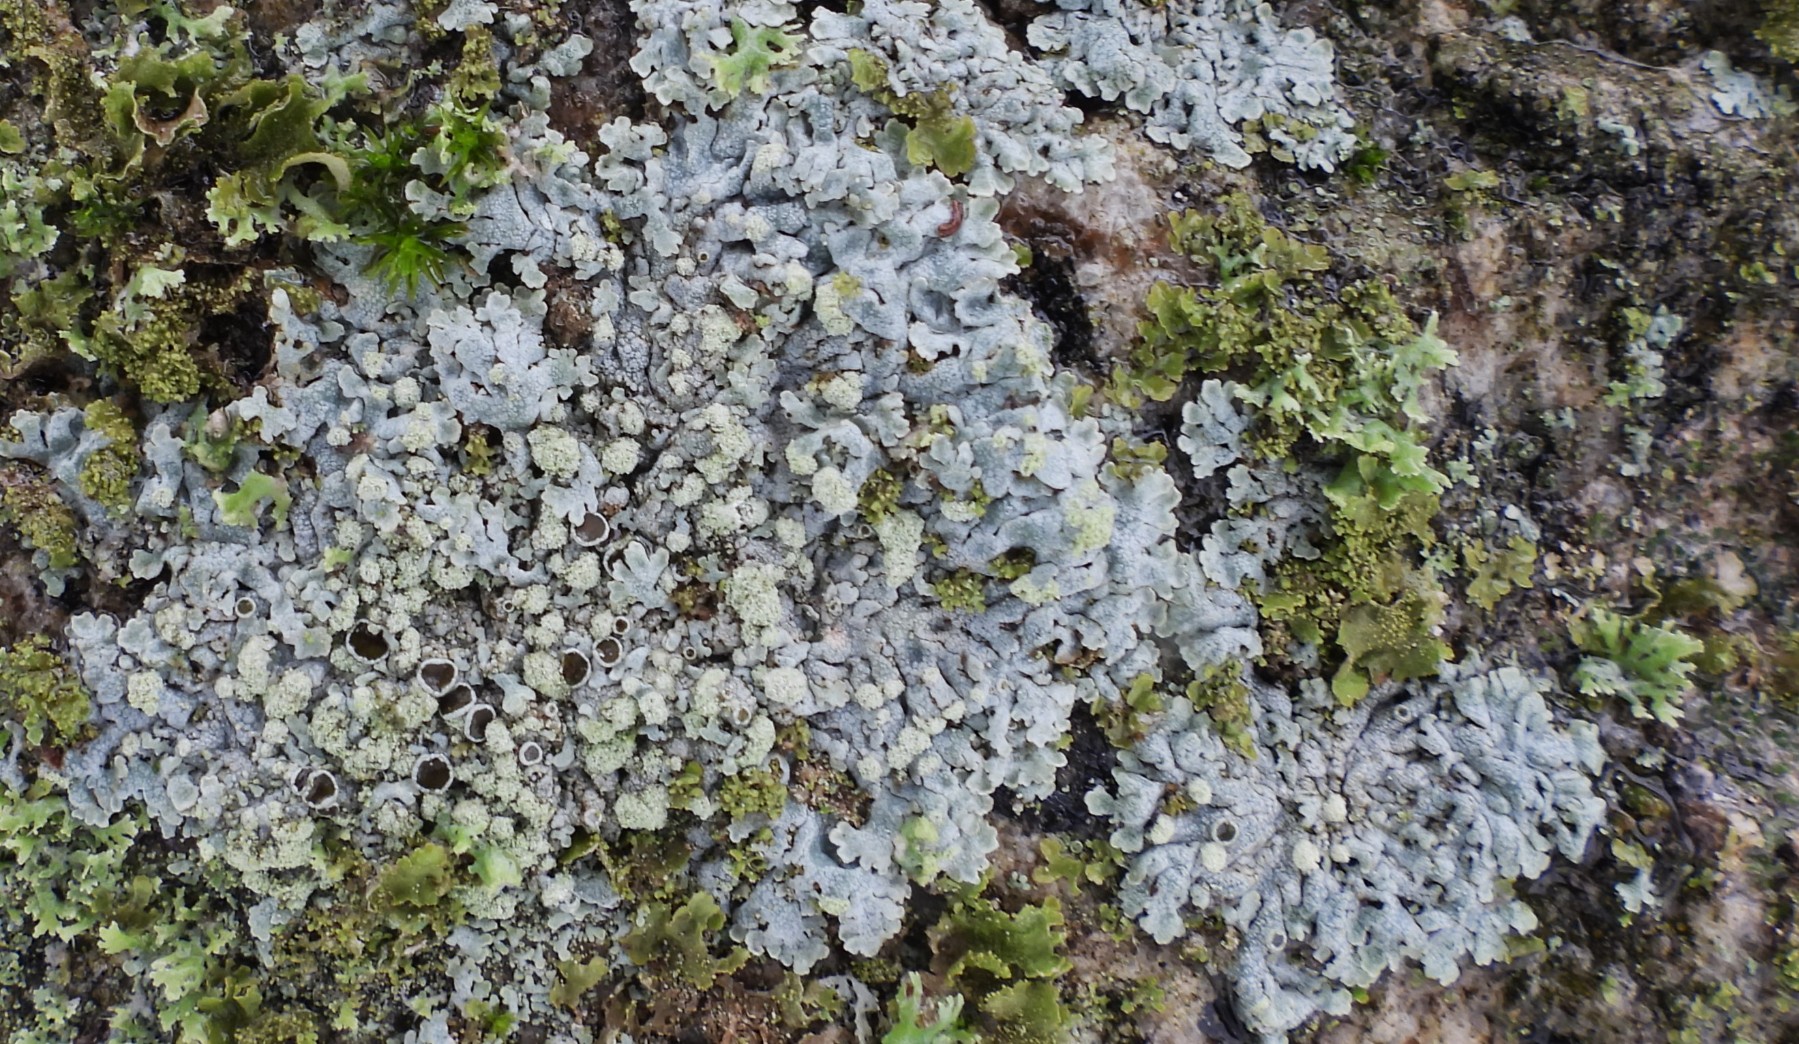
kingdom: Fungi
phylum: Ascomycota
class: Lecanoromycetes
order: Caliciales
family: Physciaceae
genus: Physcia
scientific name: Physcia caesia
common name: blågrå rosetlav
